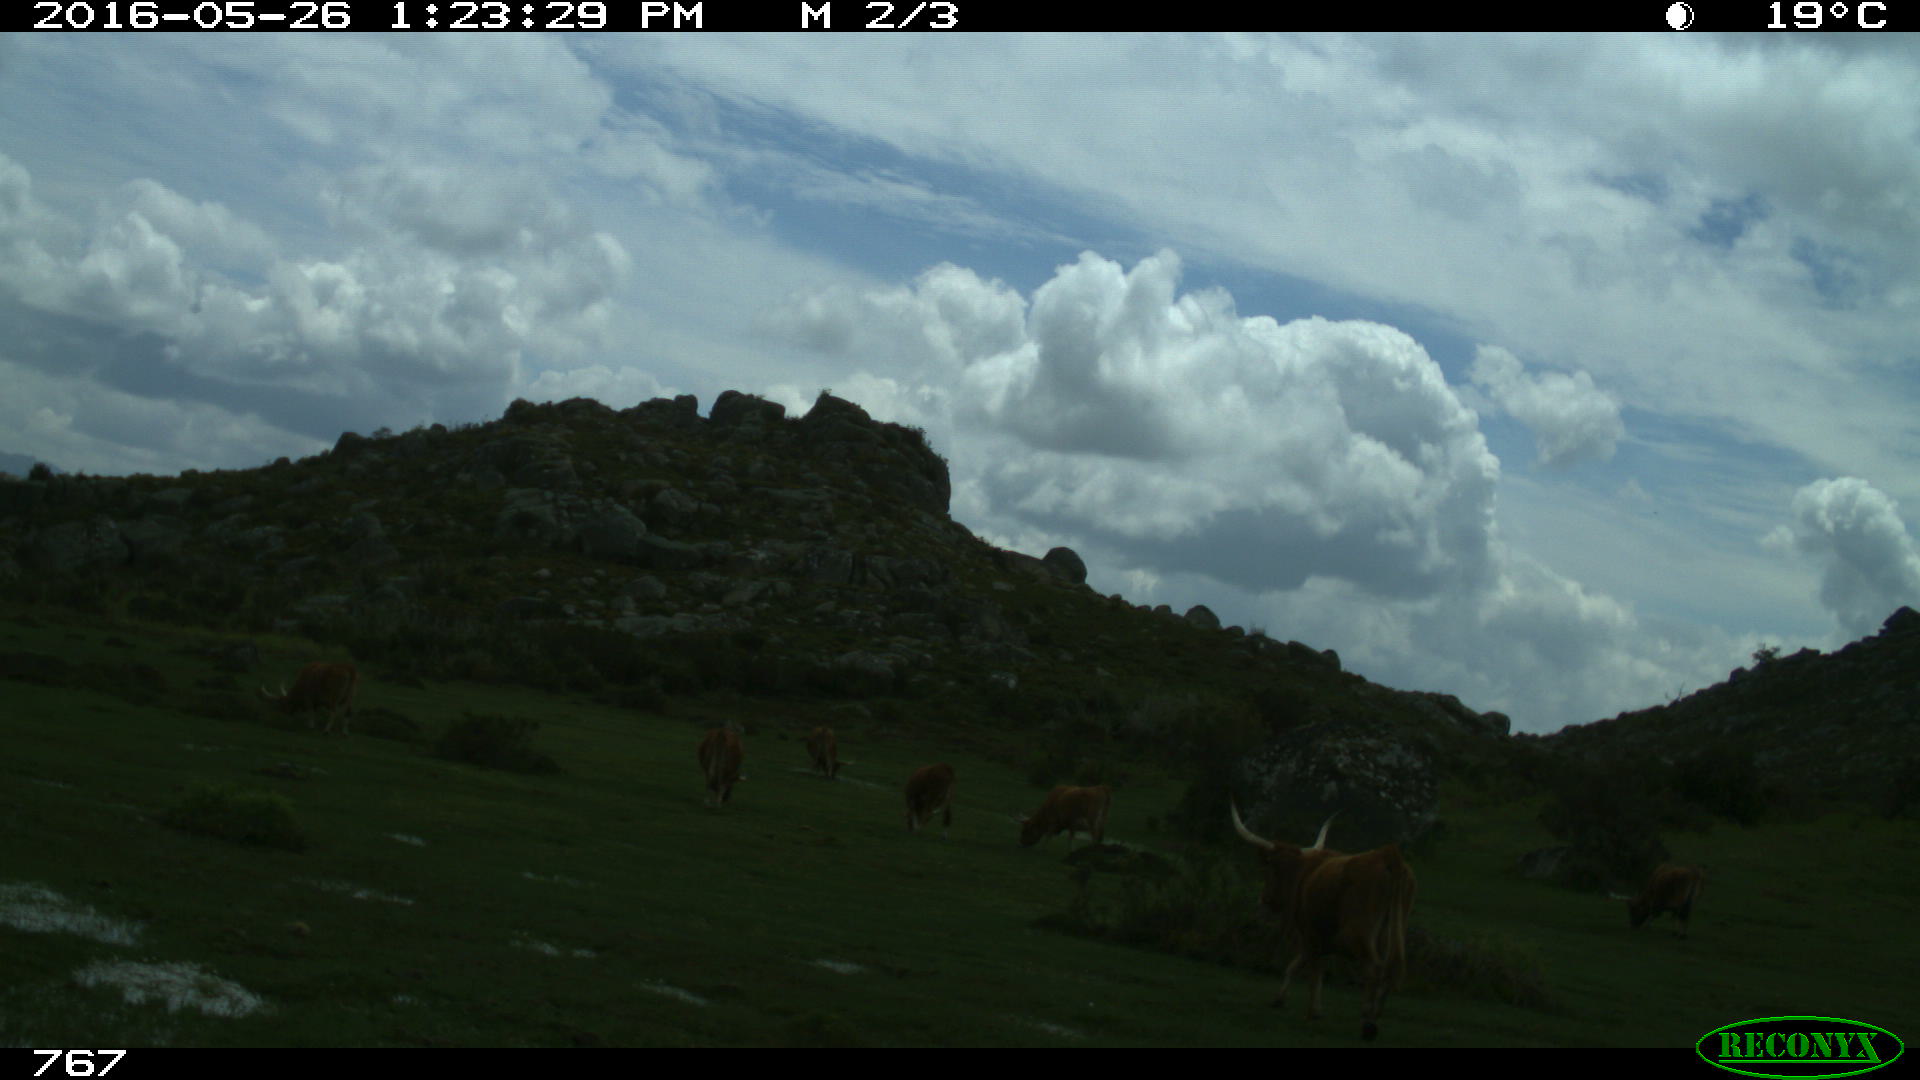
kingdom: Animalia
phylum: Chordata
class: Mammalia
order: Artiodactyla
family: Bovidae
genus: Bos
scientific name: Bos taurus
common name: Domesticated cattle
